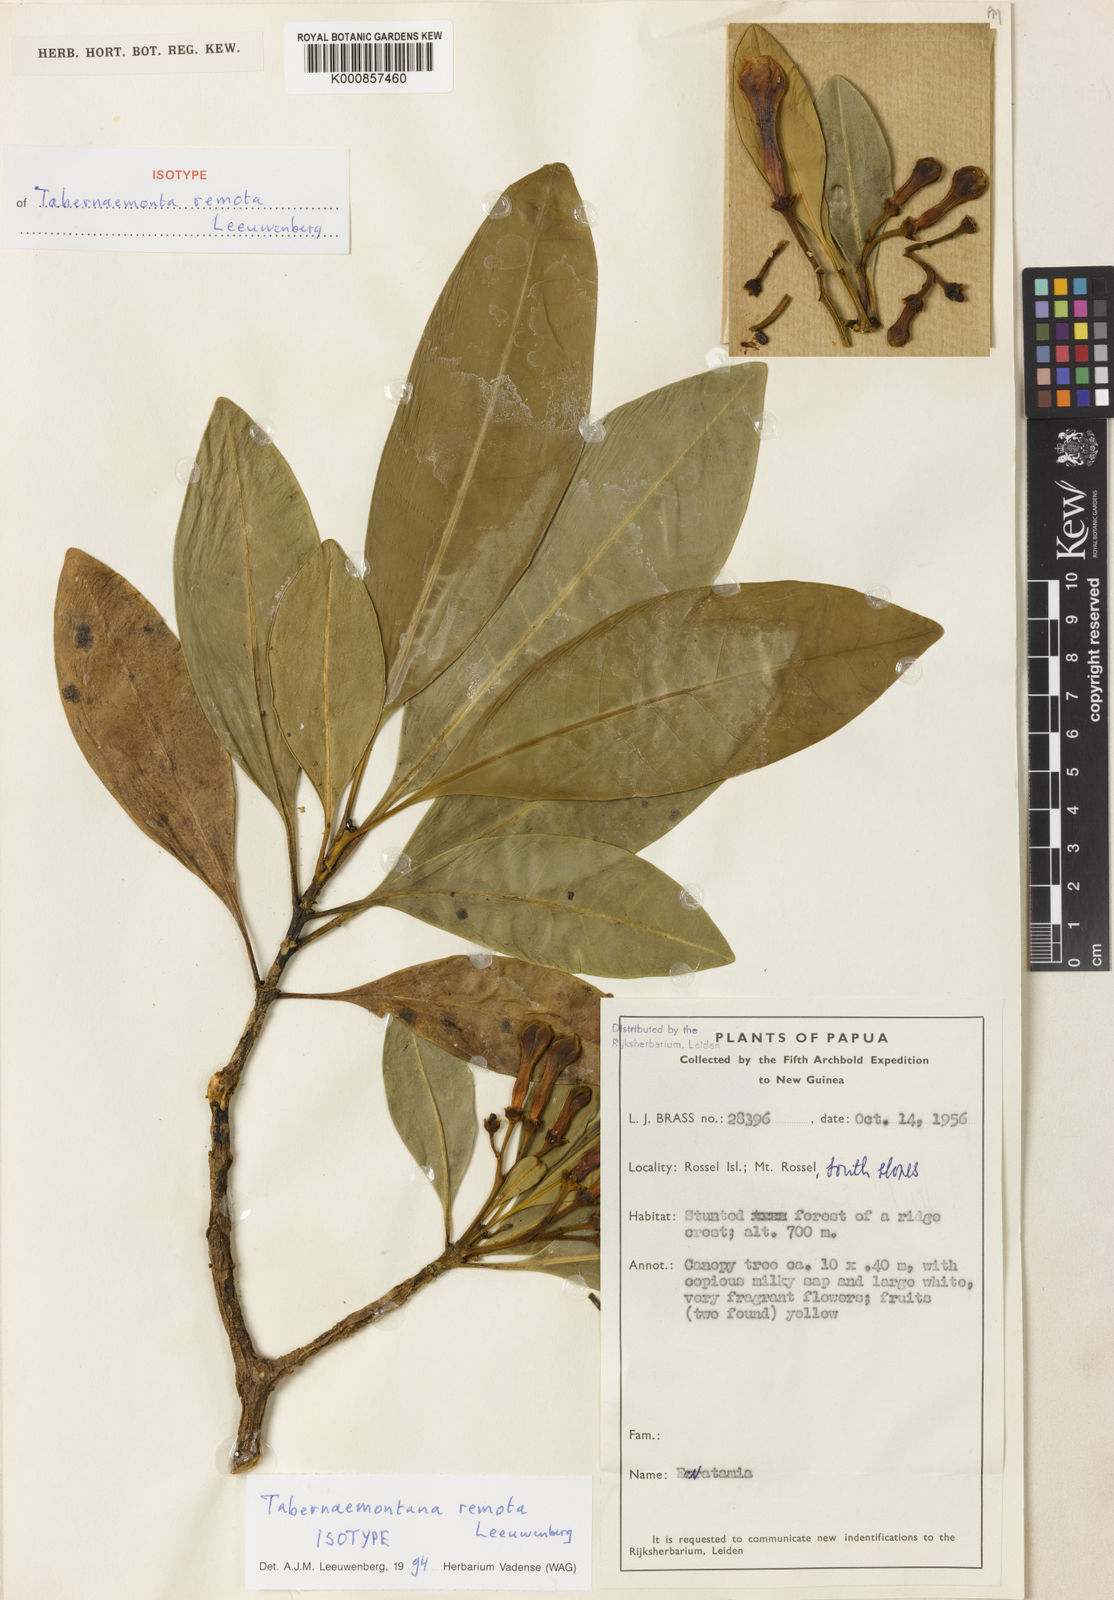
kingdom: Plantae
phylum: Tracheophyta
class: Magnoliopsida
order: Gentianales
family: Apocynaceae
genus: Tabernaemontana
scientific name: Tabernaemontana remota
